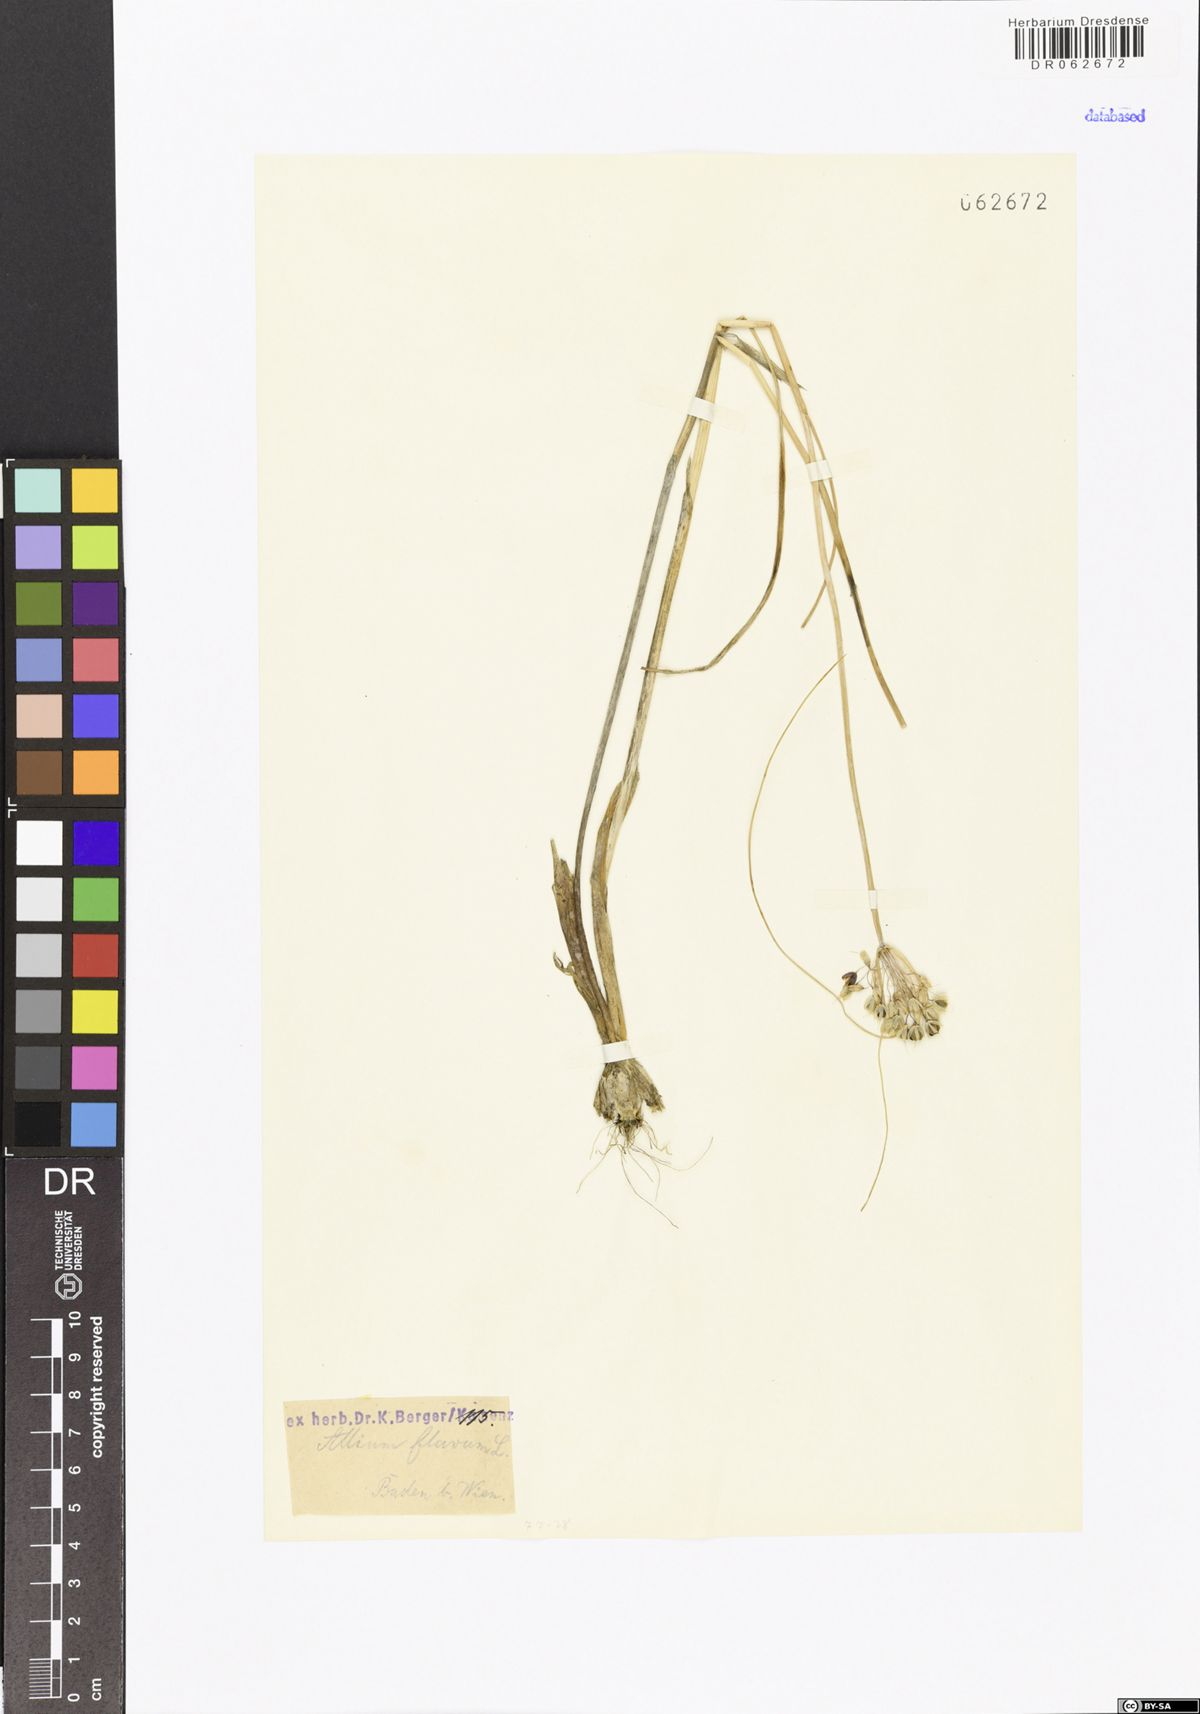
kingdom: Plantae
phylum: Tracheophyta
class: Liliopsida
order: Asparagales
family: Amaryllidaceae
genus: Allium
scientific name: Allium flavum
